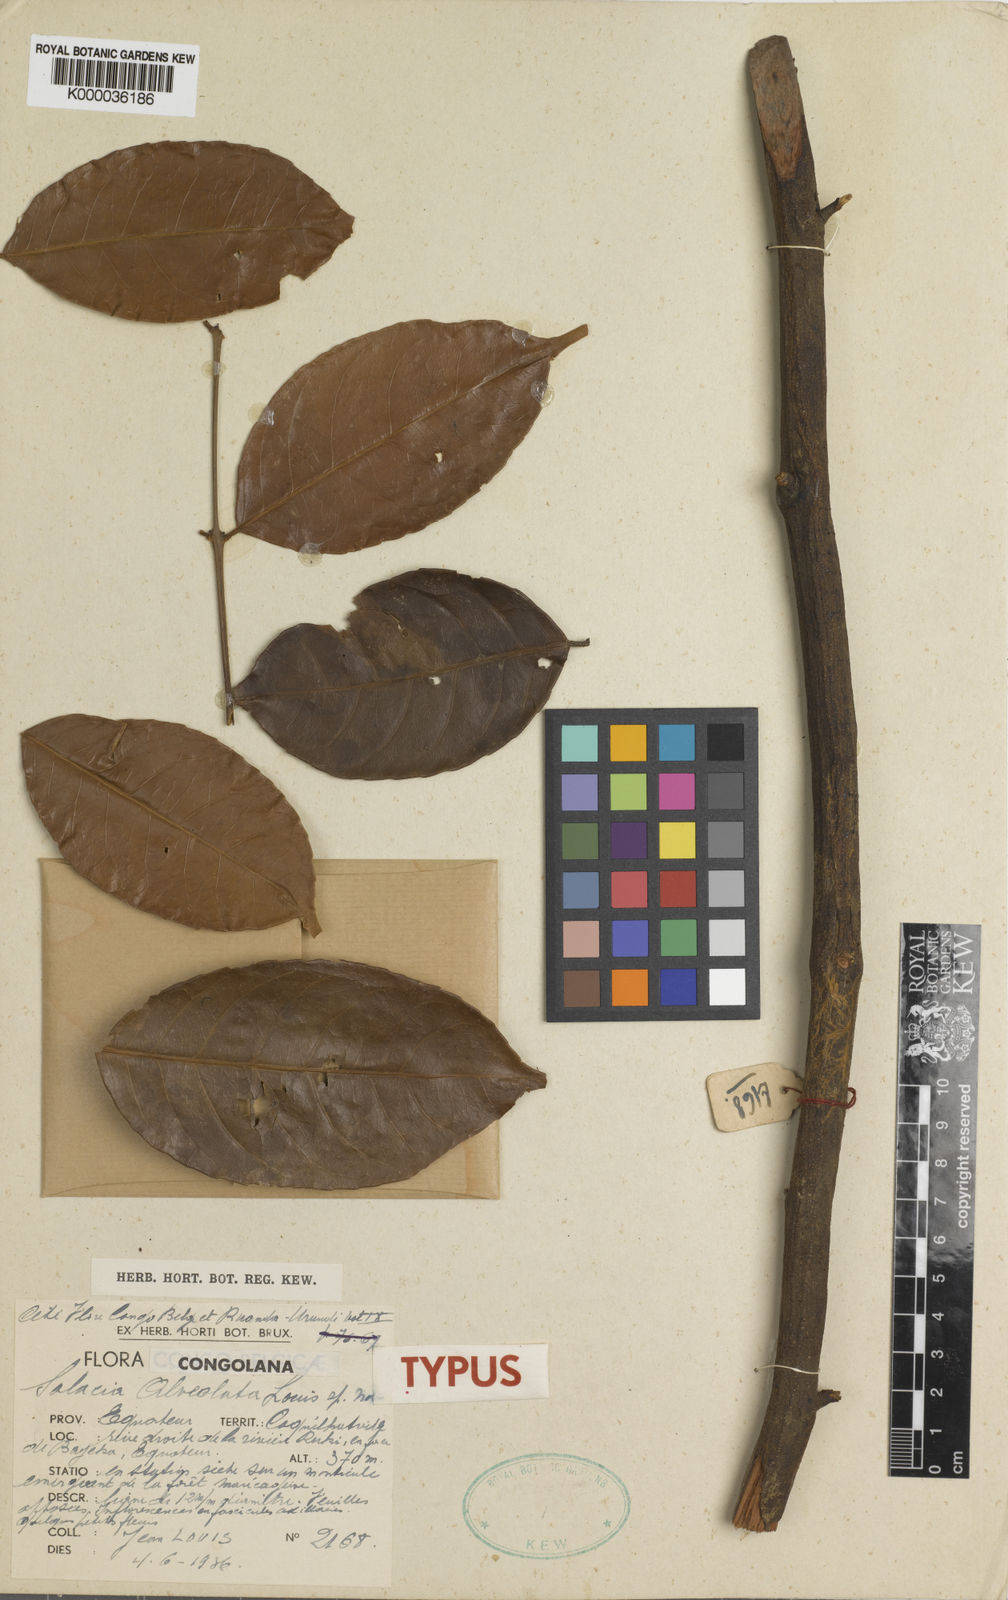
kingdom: Plantae
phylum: Tracheophyta
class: Magnoliopsida
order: Celastrales
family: Celastraceae
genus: Salacia
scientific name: Salacia alveolata
